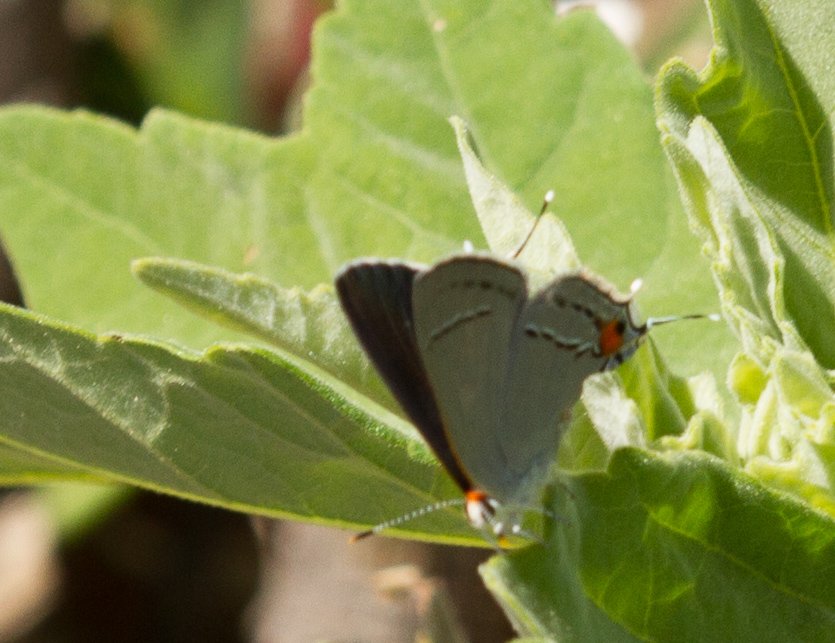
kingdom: Animalia
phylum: Arthropoda
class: Insecta
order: Lepidoptera
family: Lycaenidae
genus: Strymon
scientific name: Strymon melinus
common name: Gray Hairstreak
